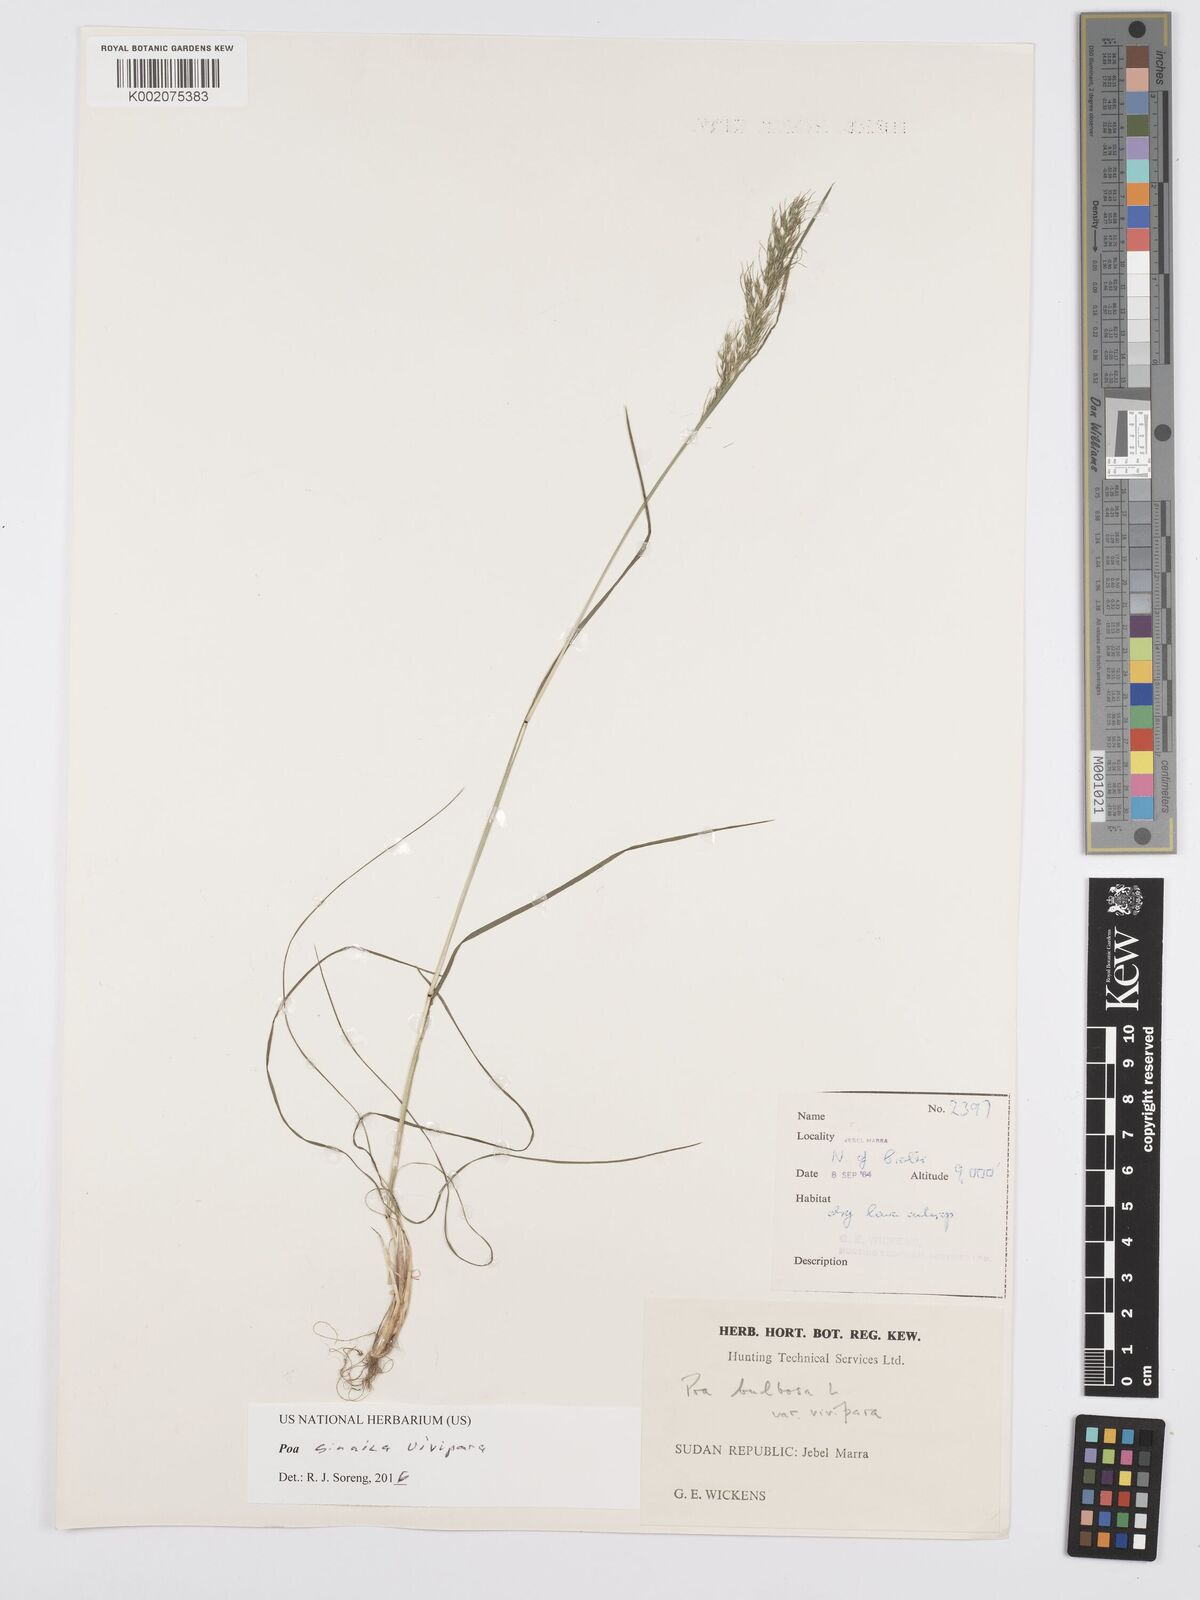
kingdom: Plantae
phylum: Tracheophyta
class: Liliopsida
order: Poales
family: Poaceae
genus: Poa
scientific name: Poa sinaica
